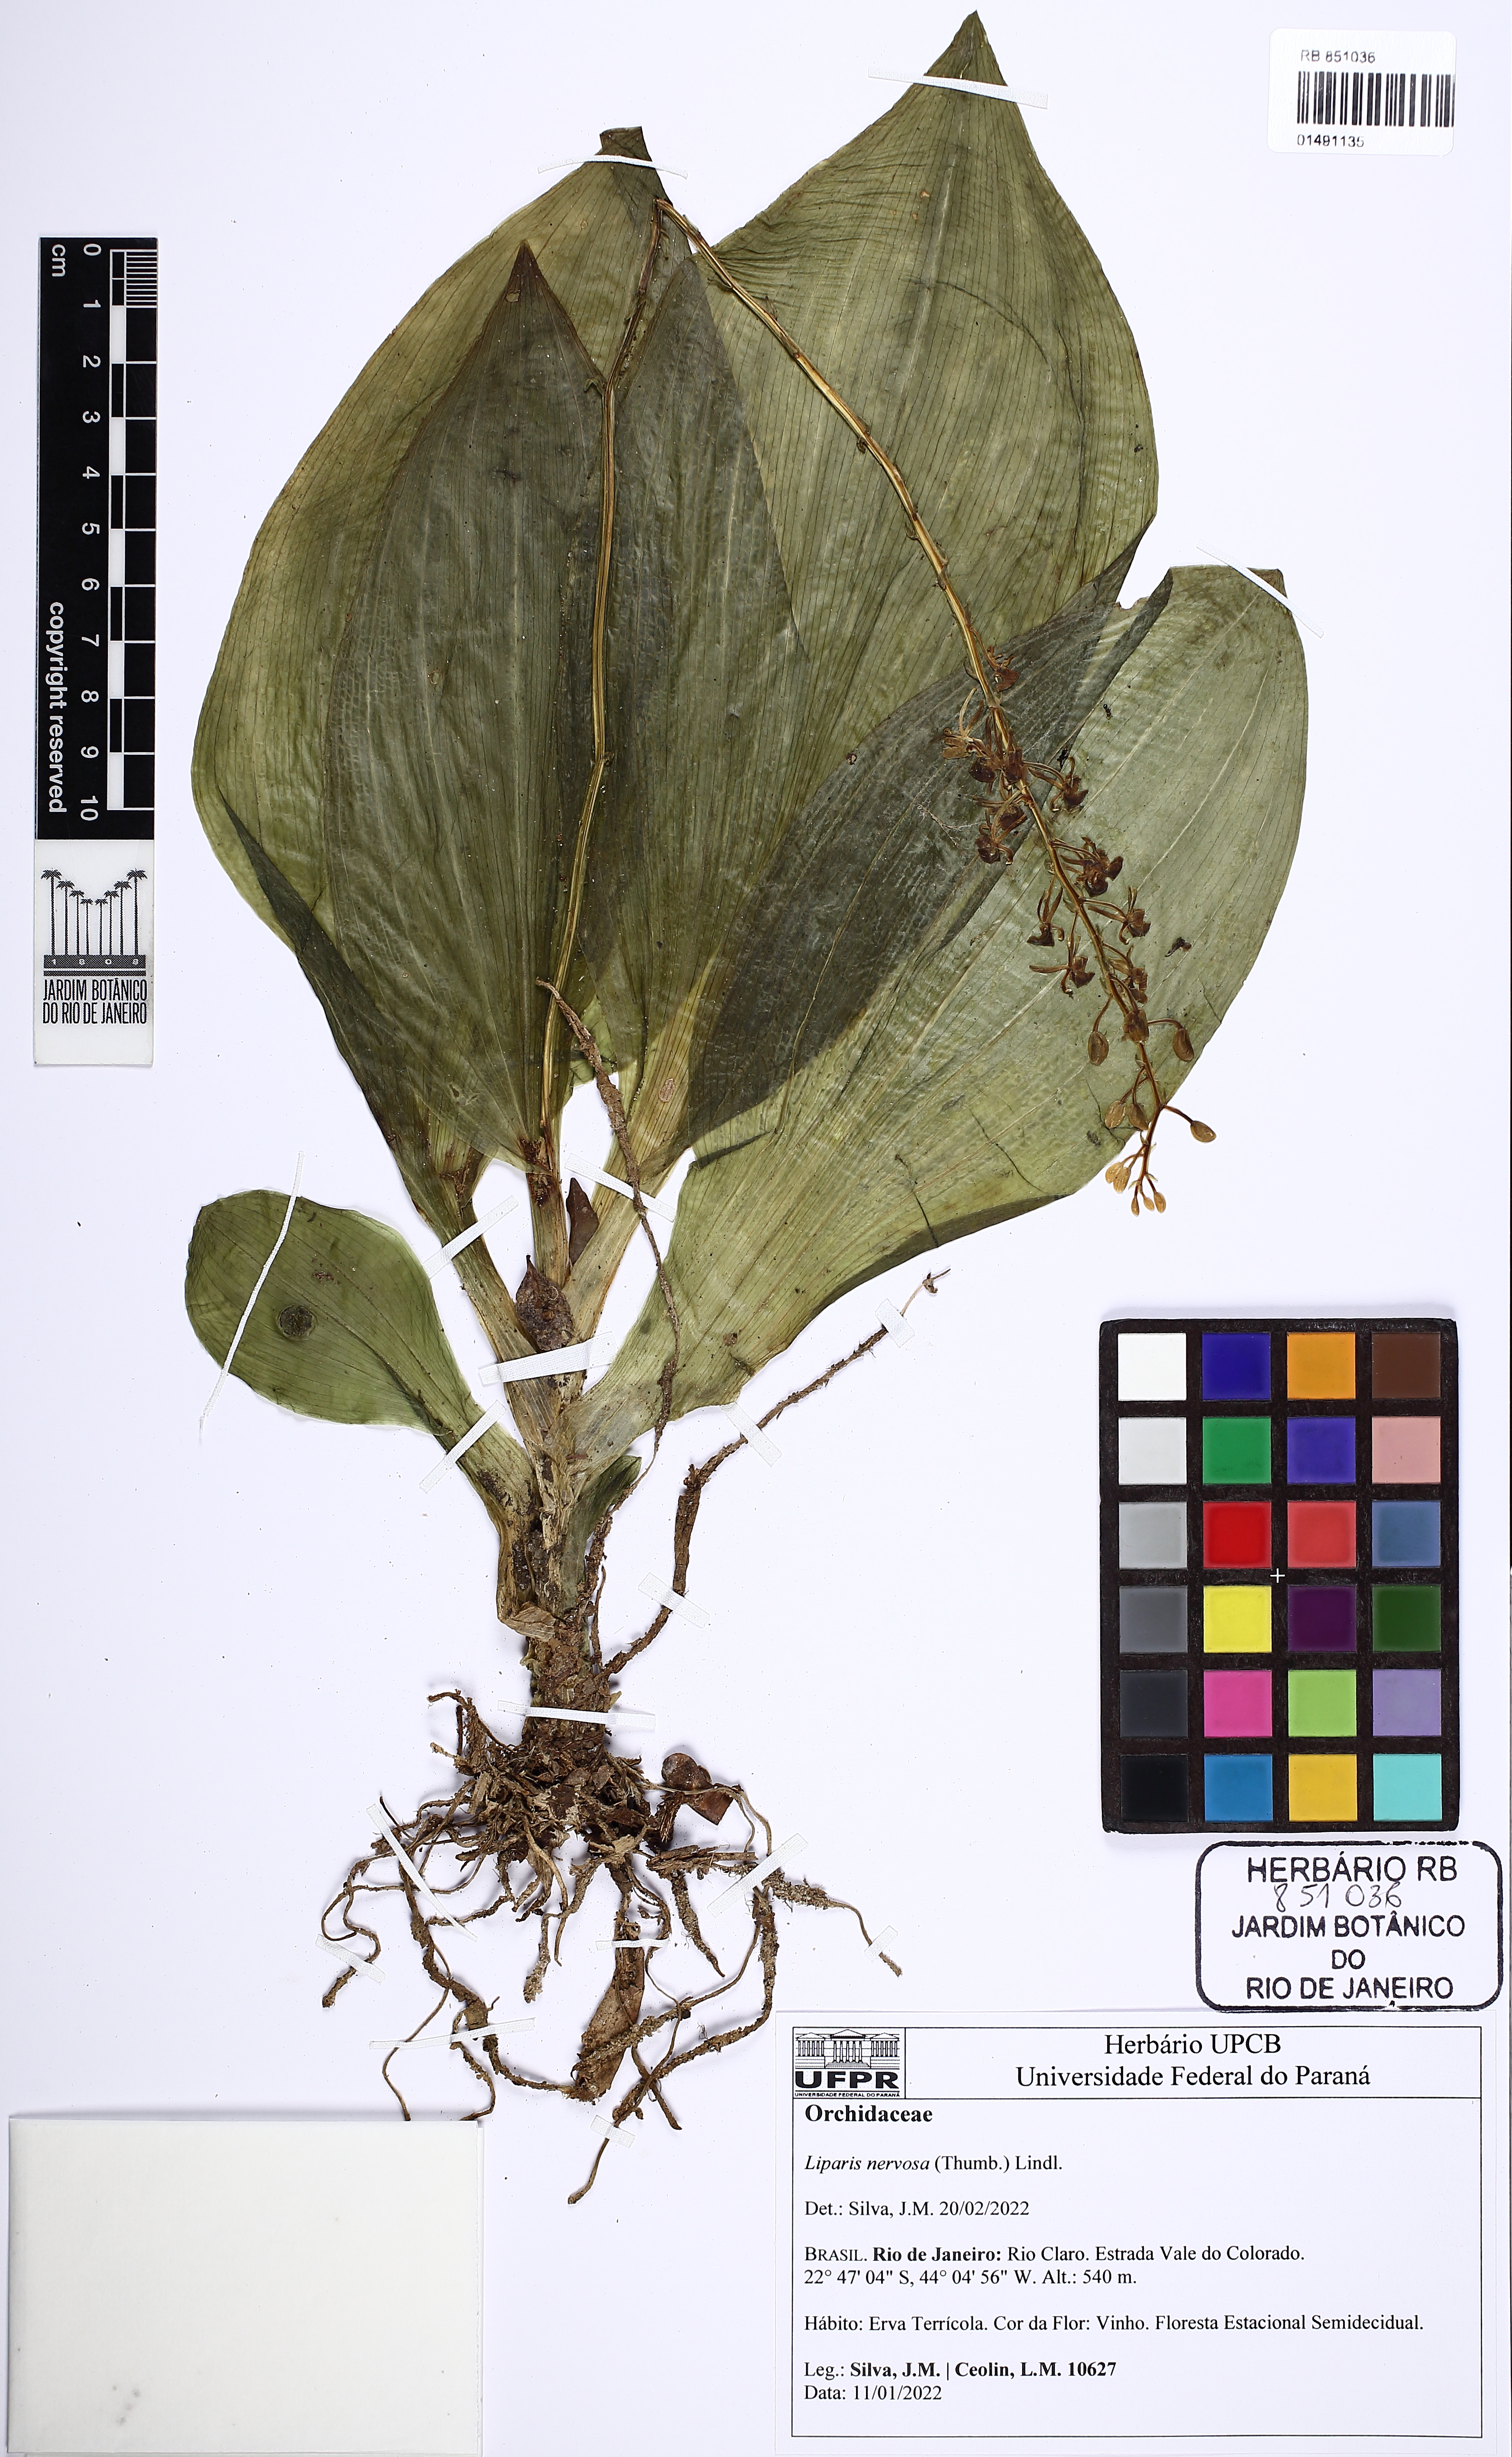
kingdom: Plantae
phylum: Tracheophyta
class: Liliopsida
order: Asparagales
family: Orchidaceae
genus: Liparis
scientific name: Liparis nervosa
